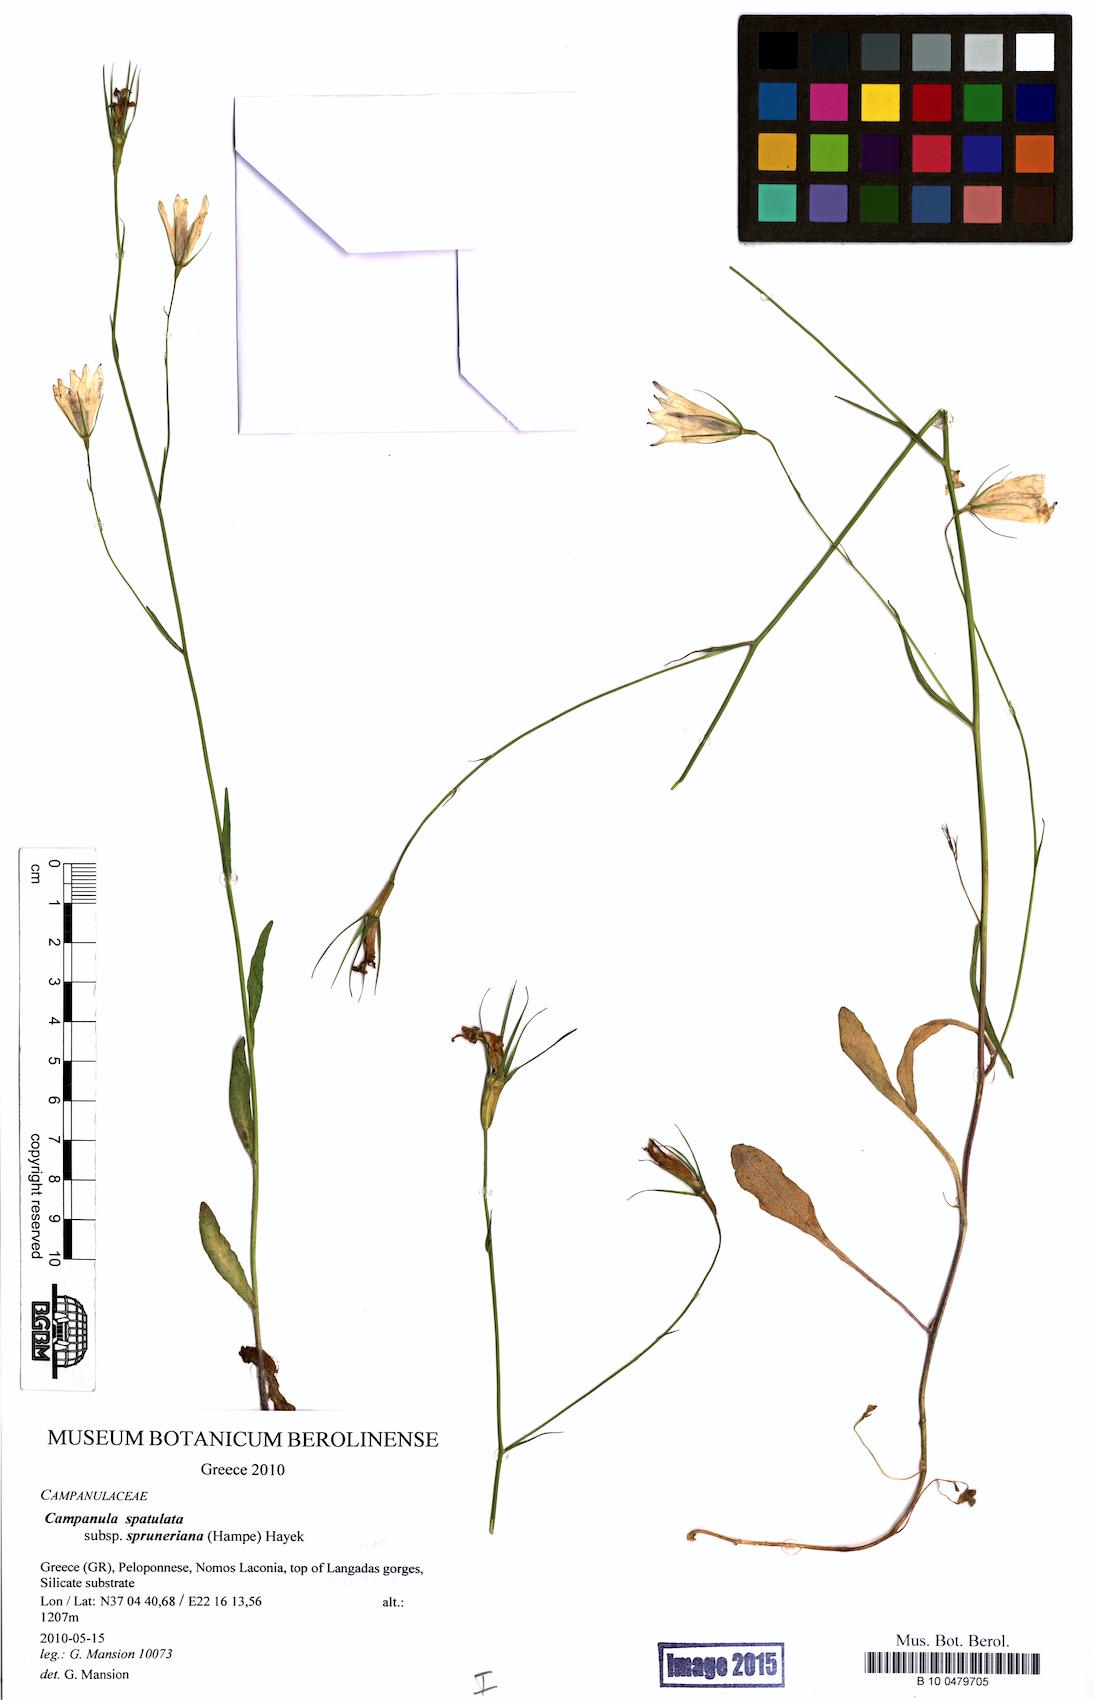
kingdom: Plantae
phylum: Tracheophyta
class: Magnoliopsida
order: Asterales
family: Campanulaceae
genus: Campanula
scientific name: Campanula spatulata
